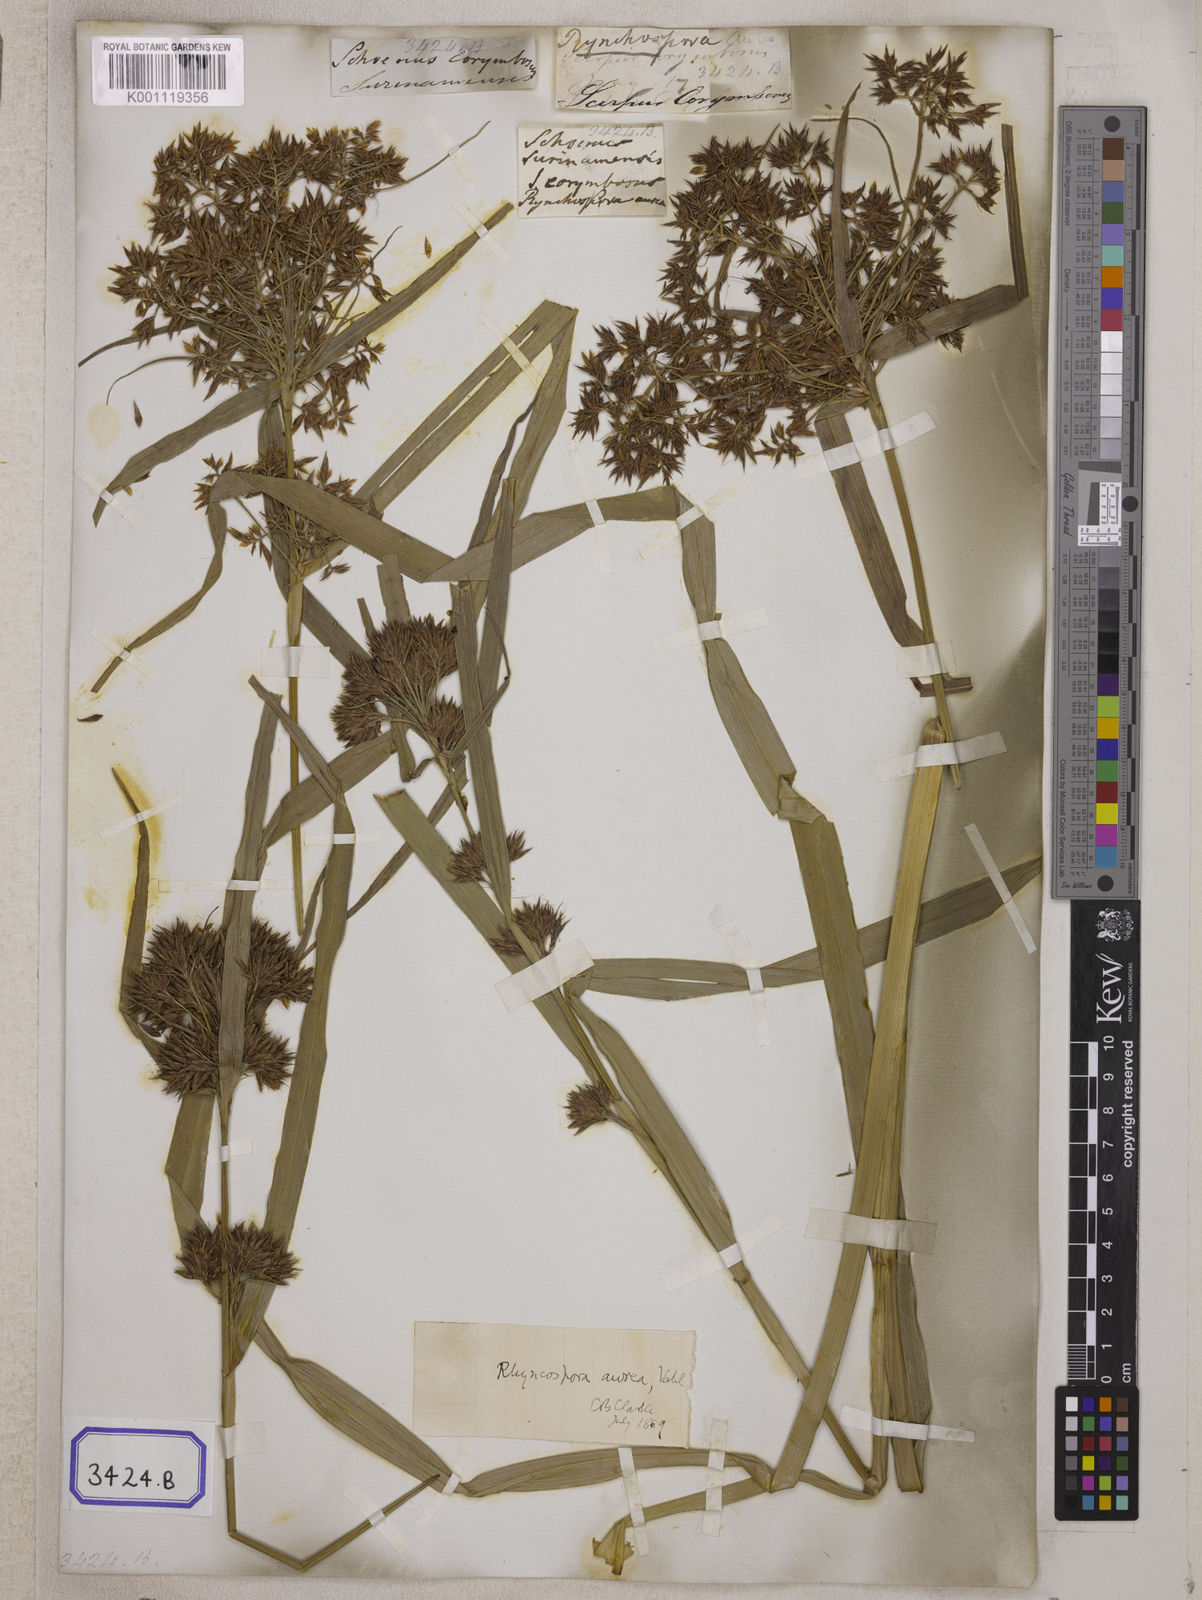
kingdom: Plantae
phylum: Tracheophyta
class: Liliopsida
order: Poales
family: Cyperaceae
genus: Rhynchospora
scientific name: Rhynchospora
